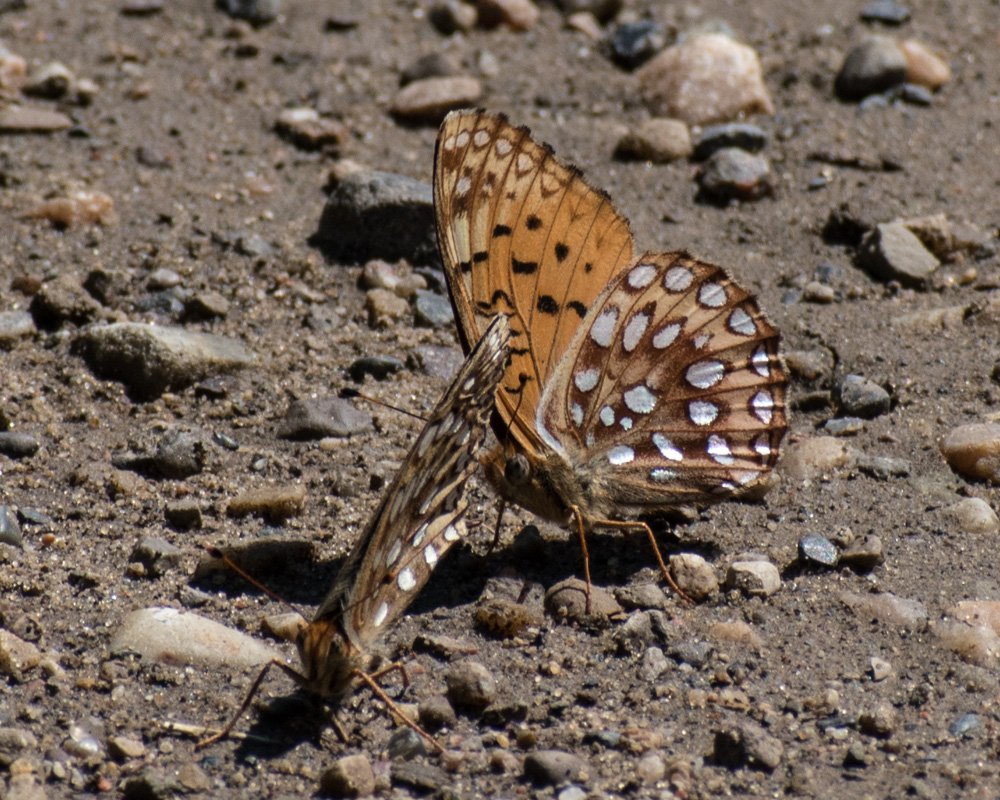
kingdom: Animalia
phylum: Arthropoda
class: Insecta
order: Lepidoptera
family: Nymphalidae
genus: Speyeria
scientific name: Speyeria atlantis
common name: Northwestern Fritillary
